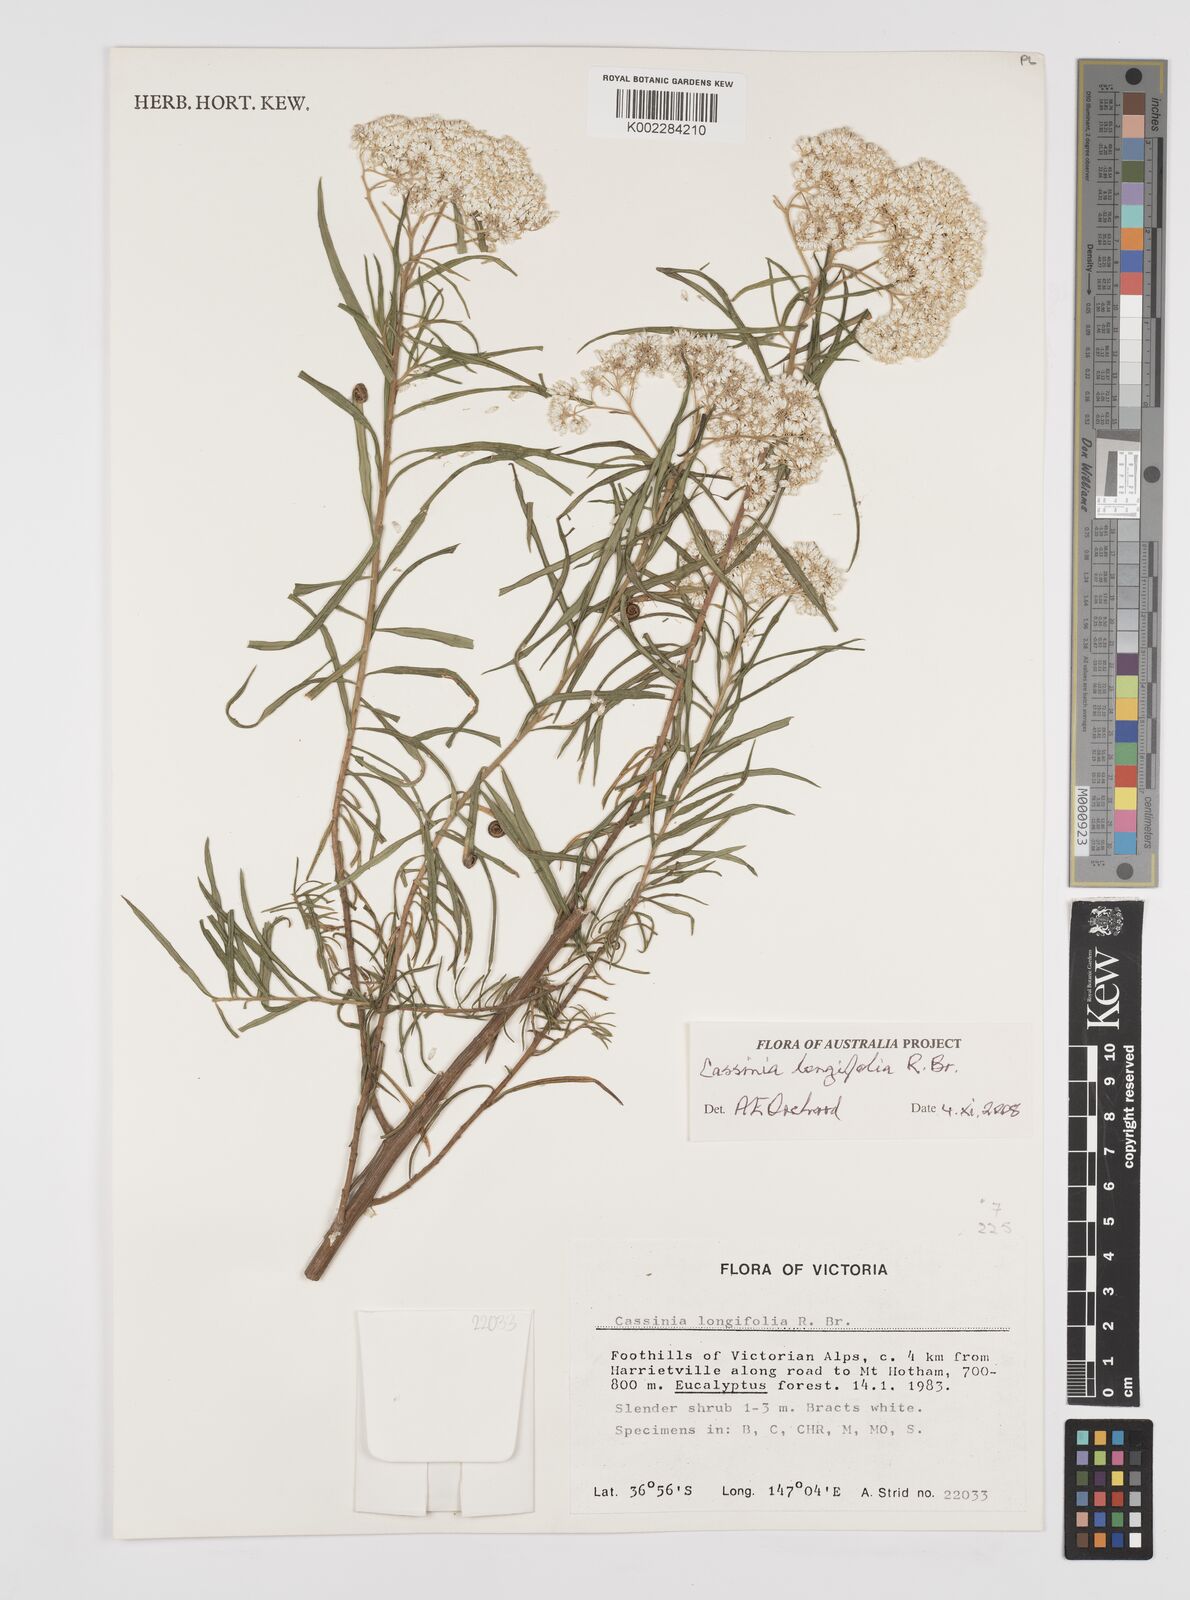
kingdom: Plantae
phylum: Tracheophyta
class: Magnoliopsida
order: Asterales
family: Asteraceae
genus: Cassinia
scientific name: Cassinia longifolia
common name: Longleaf-dogwood
